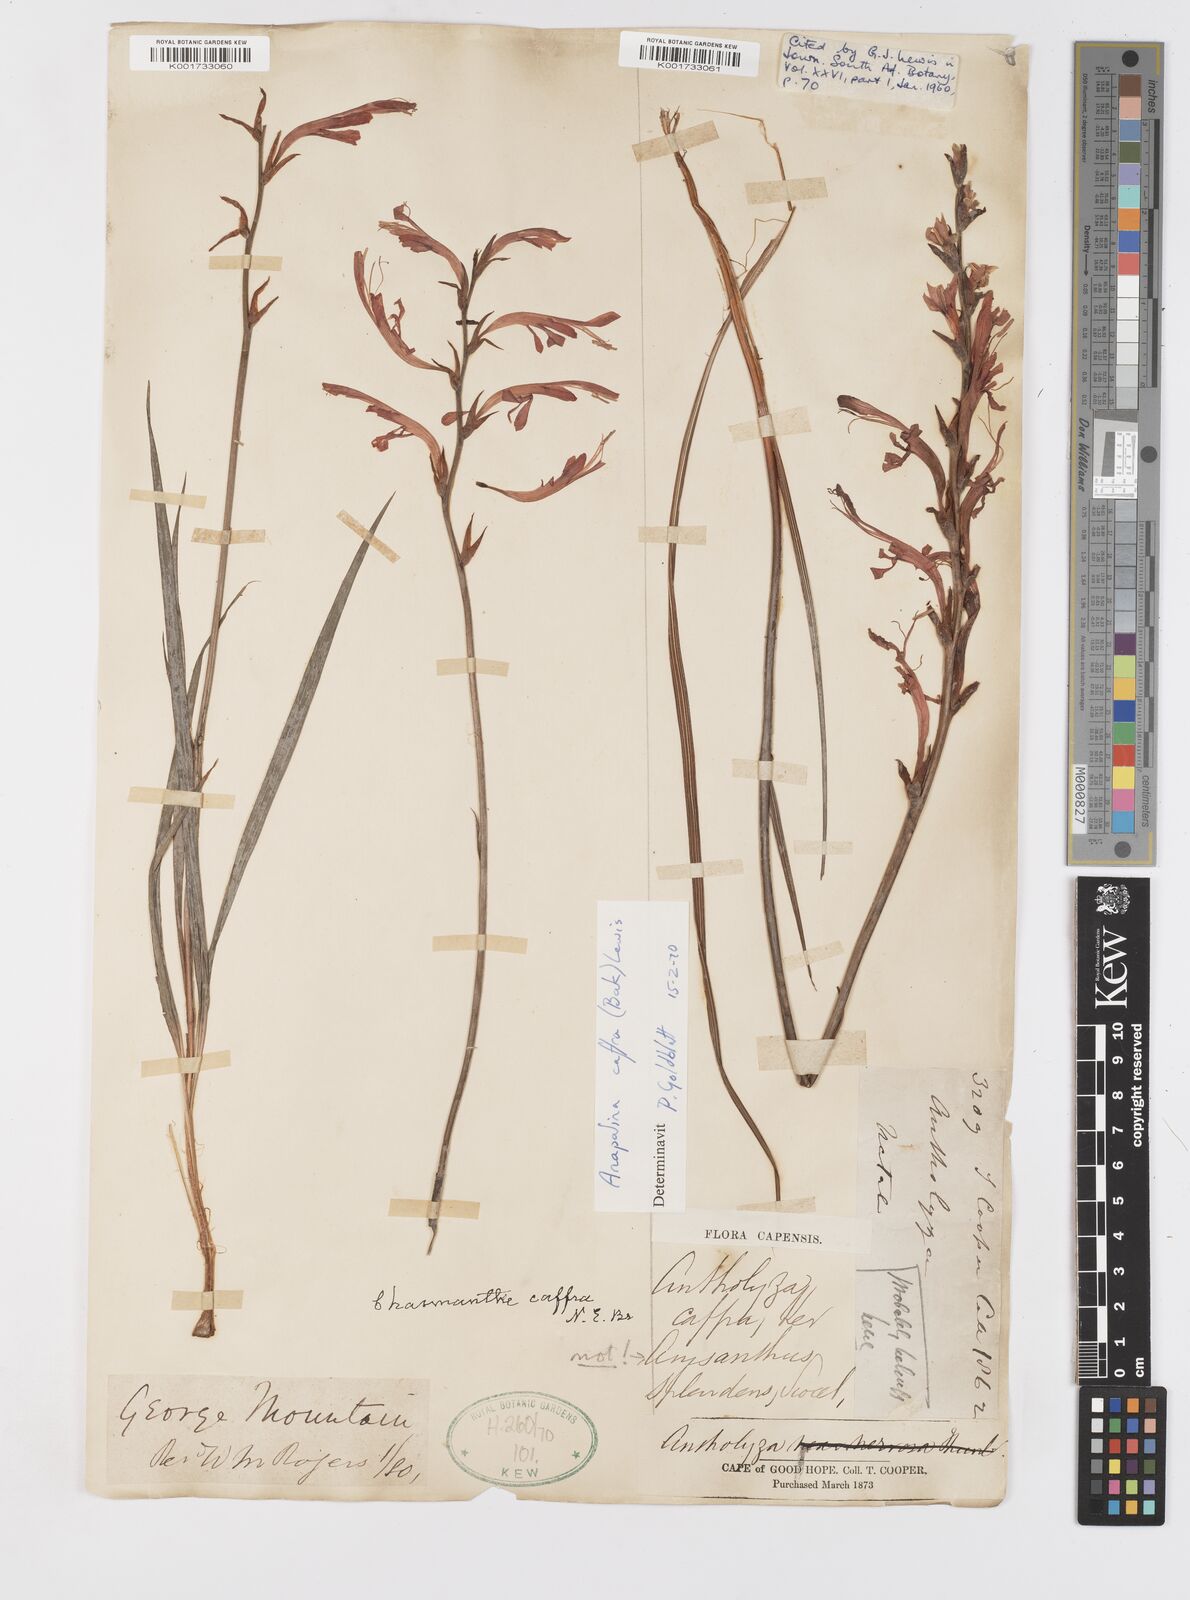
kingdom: Plantae
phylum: Tracheophyta
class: Liliopsida
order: Asparagales
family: Iridaceae
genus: Tritoniopsis
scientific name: Tritoniopsis caffra
